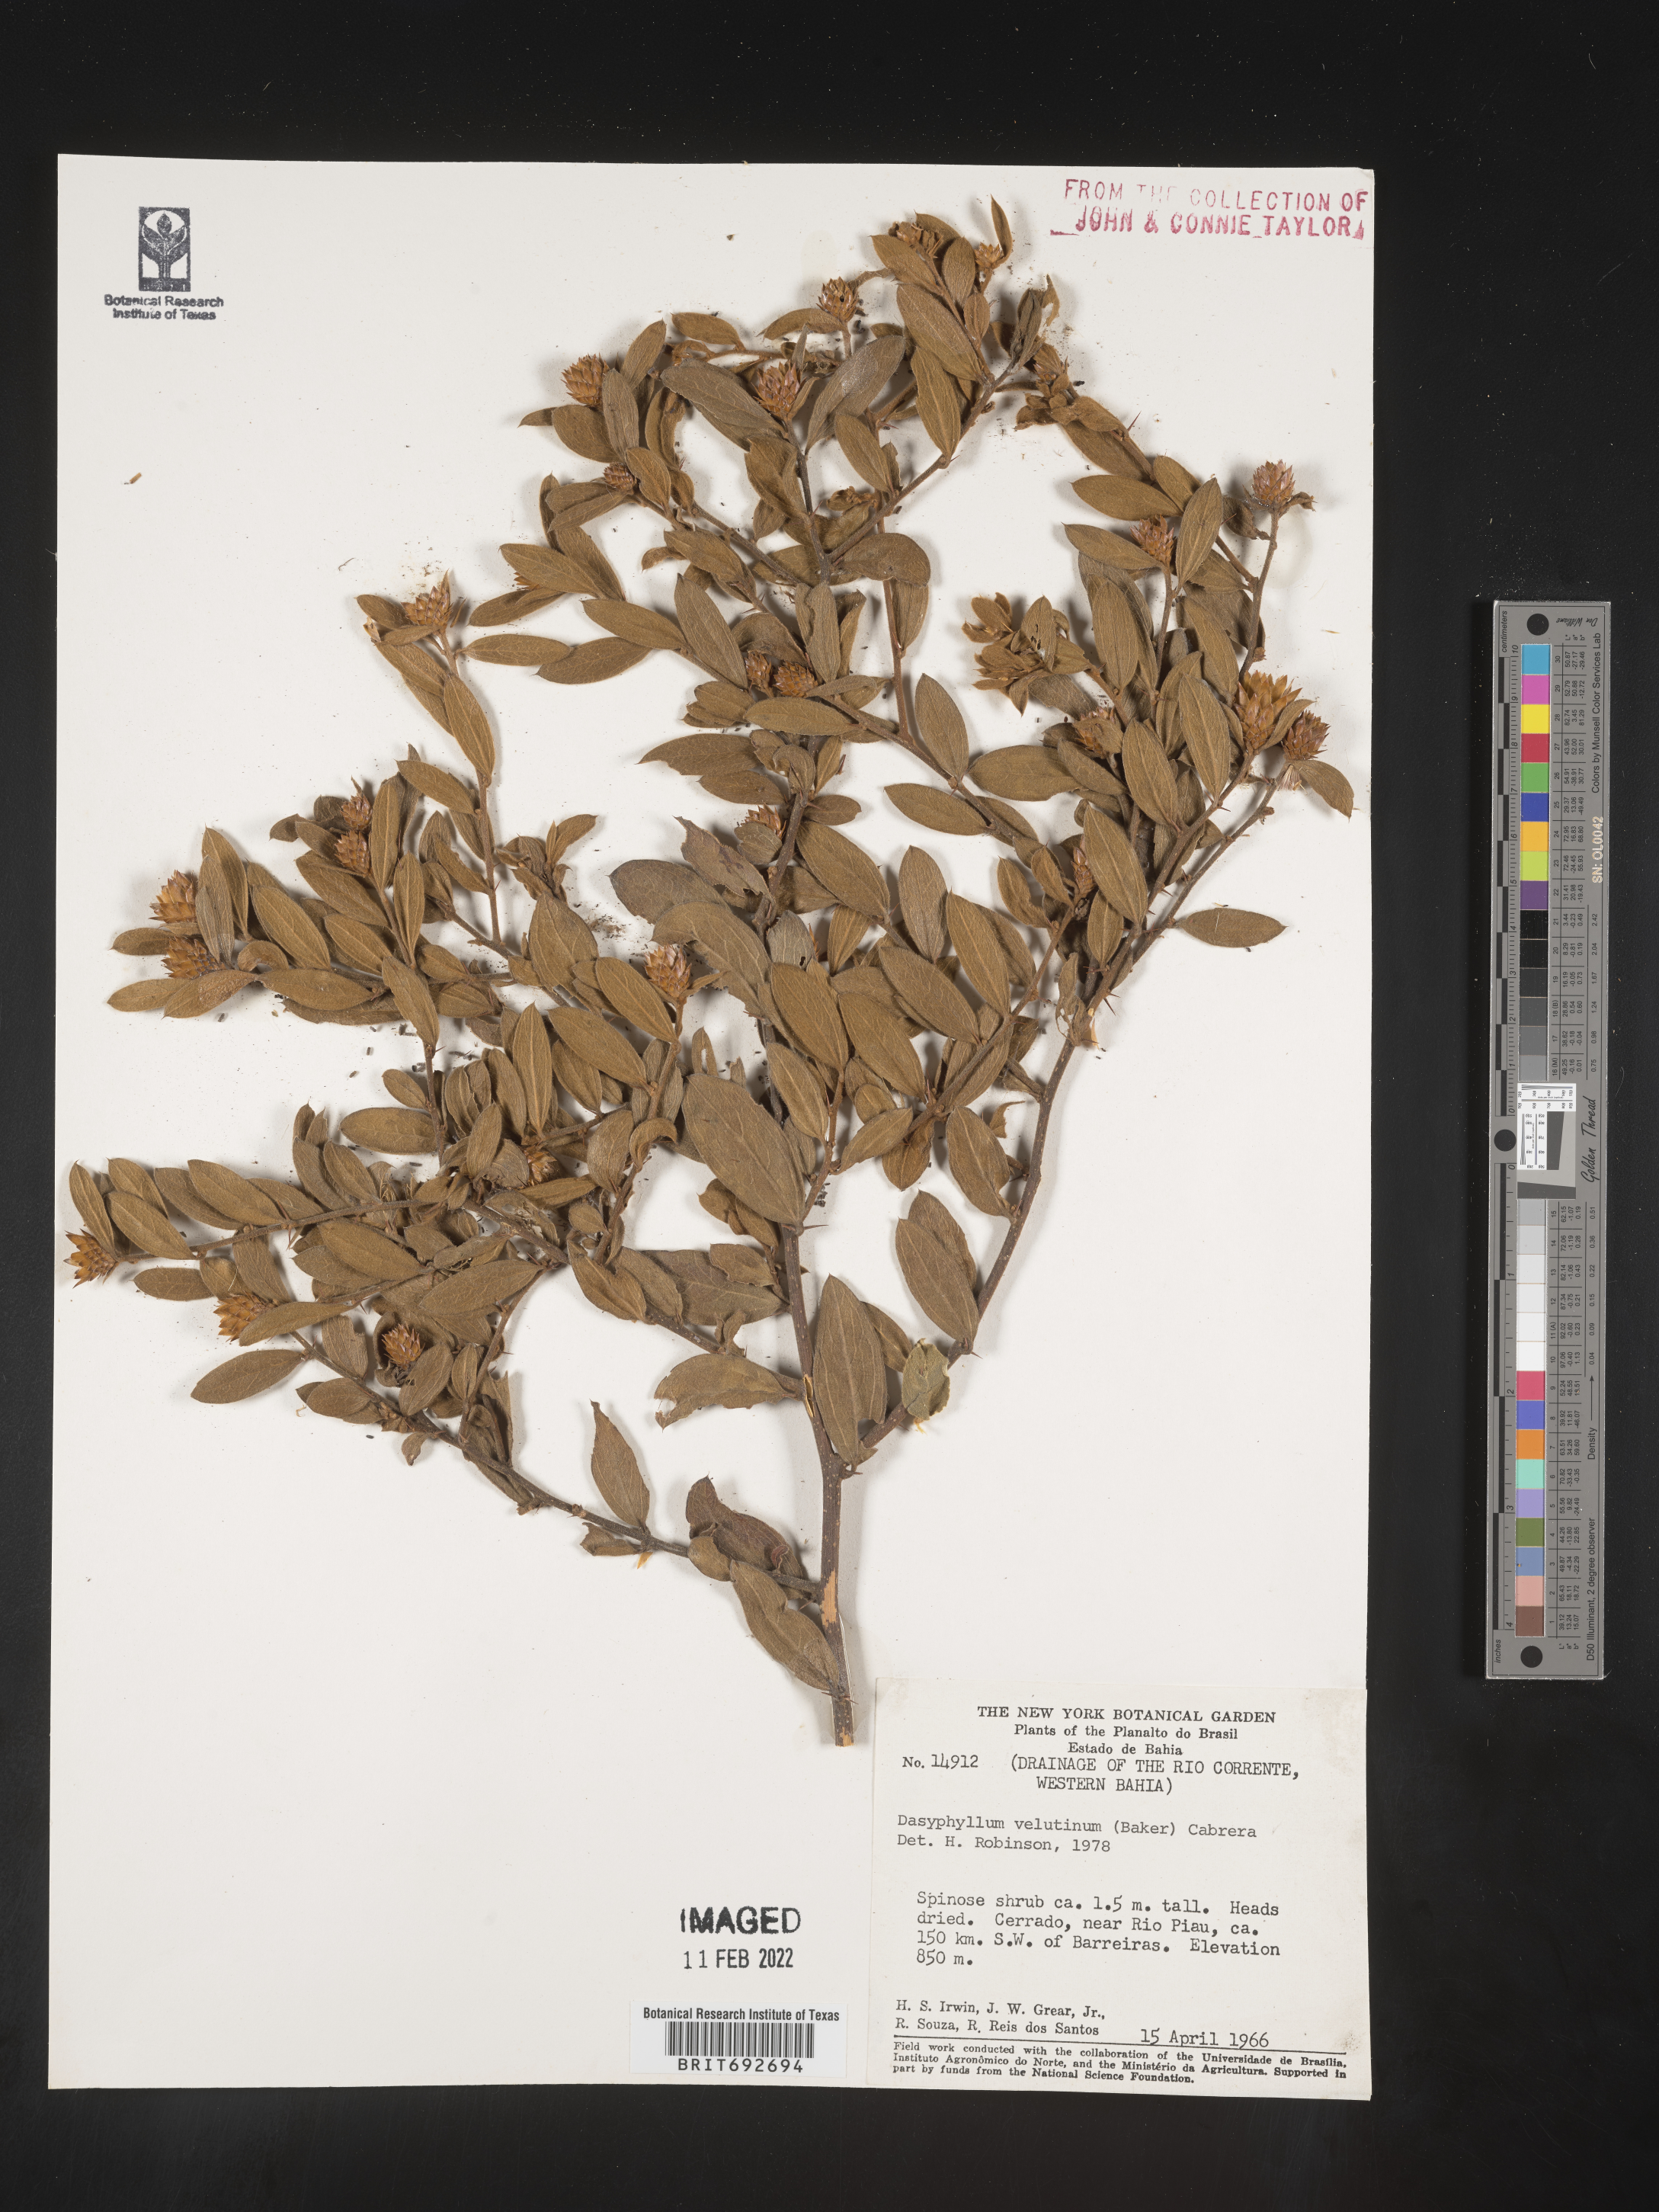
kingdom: Plantae
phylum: Tracheophyta
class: Magnoliopsida
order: Asterales
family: Asteraceae
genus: Dasyphyllum
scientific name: Dasyphyllum
